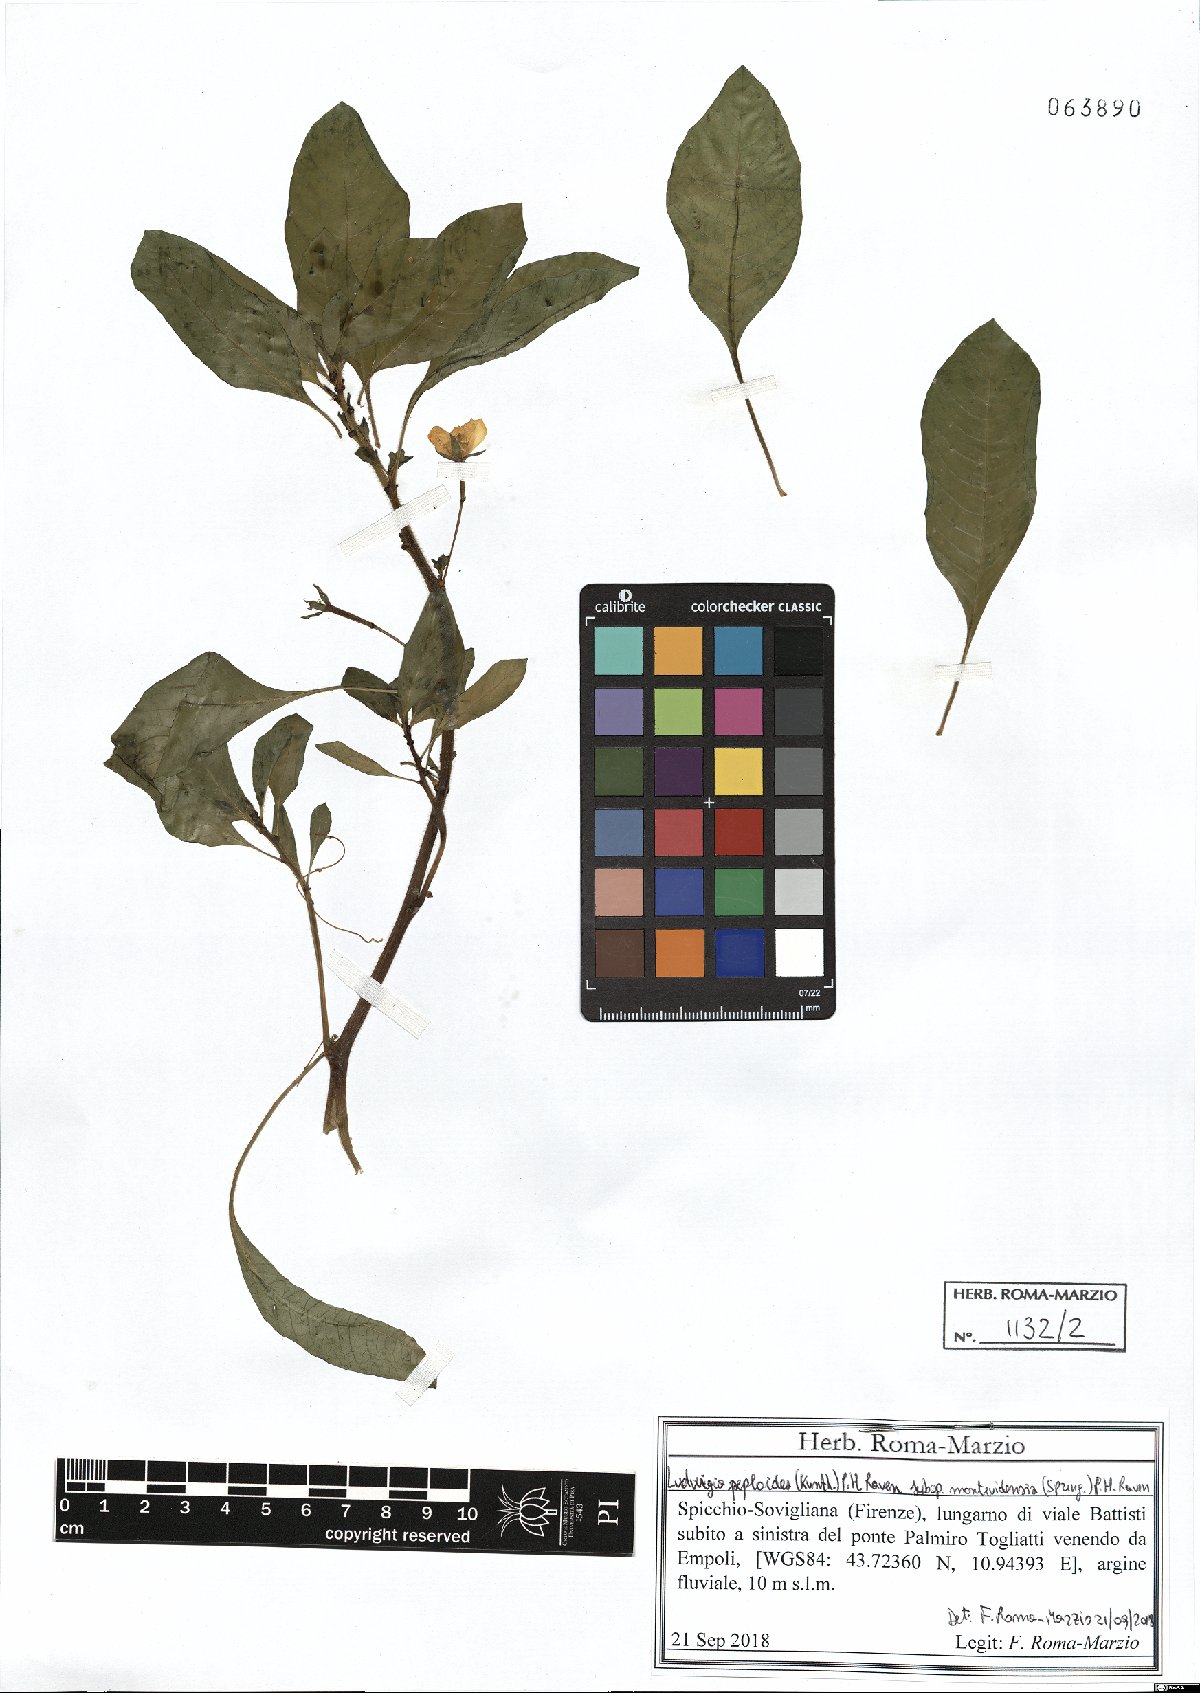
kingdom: Plantae
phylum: Tracheophyta
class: Magnoliopsida
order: Myrtales
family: Onagraceae
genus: Ludwigia
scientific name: Ludwigia peploides
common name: Floating primrose-willow
